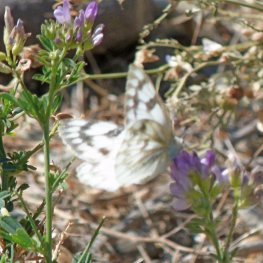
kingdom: Animalia
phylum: Arthropoda
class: Insecta
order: Lepidoptera
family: Pieridae
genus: Pontia
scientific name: Pontia protodice
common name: Checkered White
